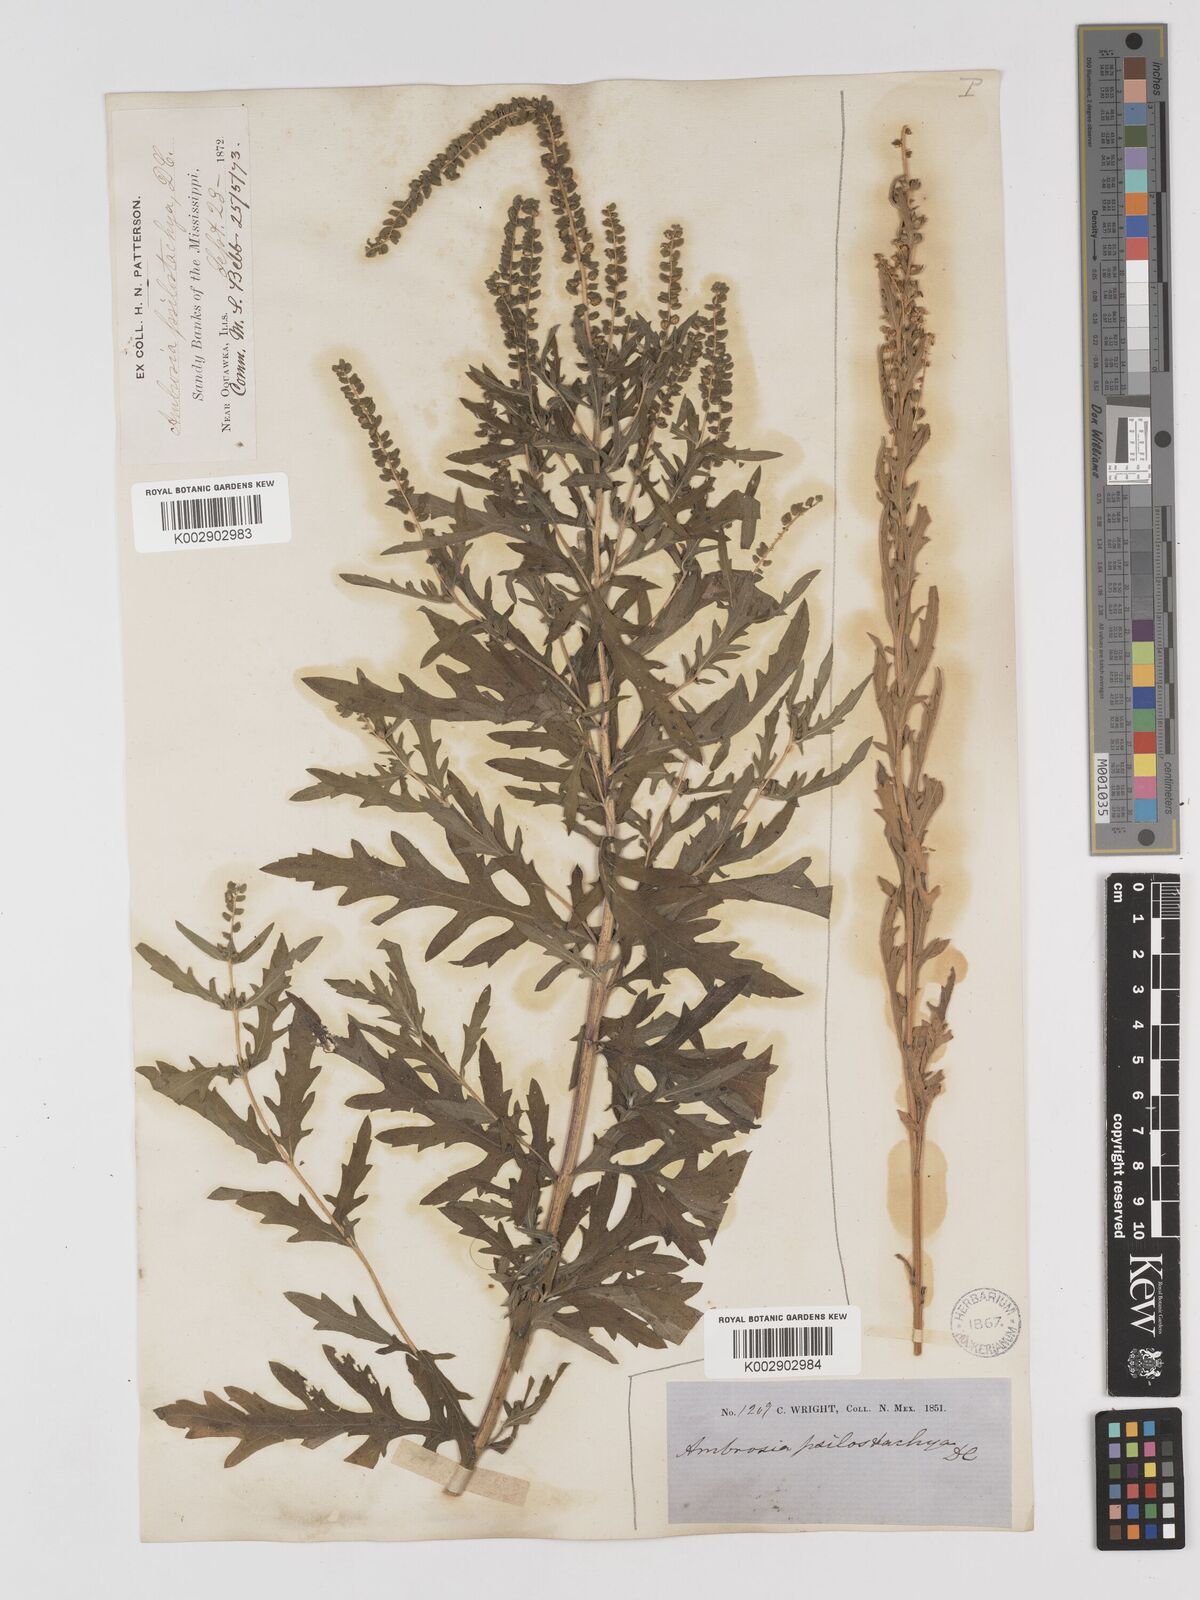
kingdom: Plantae
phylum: Tracheophyta
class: Magnoliopsida
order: Asterales
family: Asteraceae
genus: Ambrosia
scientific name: Ambrosia psilostachya
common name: Perennial ragweed
